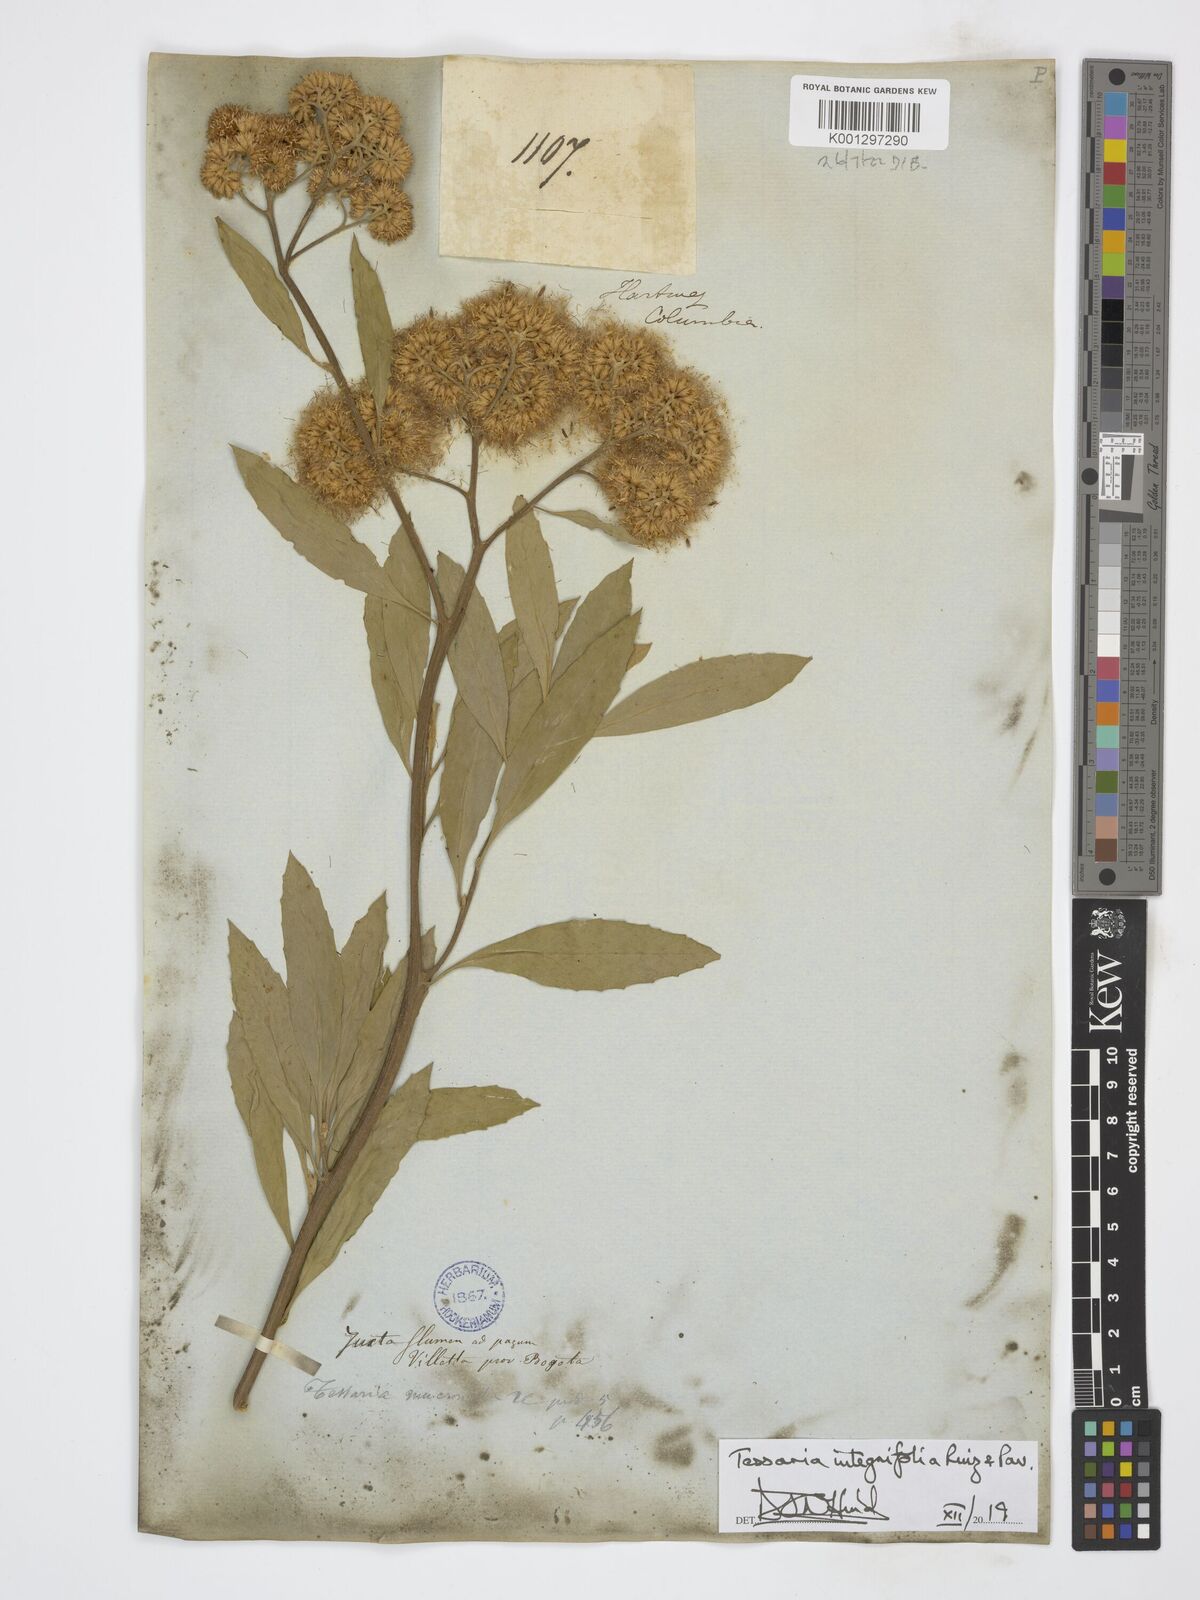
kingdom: Plantae
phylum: Tracheophyta
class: Magnoliopsida
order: Asterales
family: Asteraceae
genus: Tessaria
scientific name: Tessaria integrifolia
